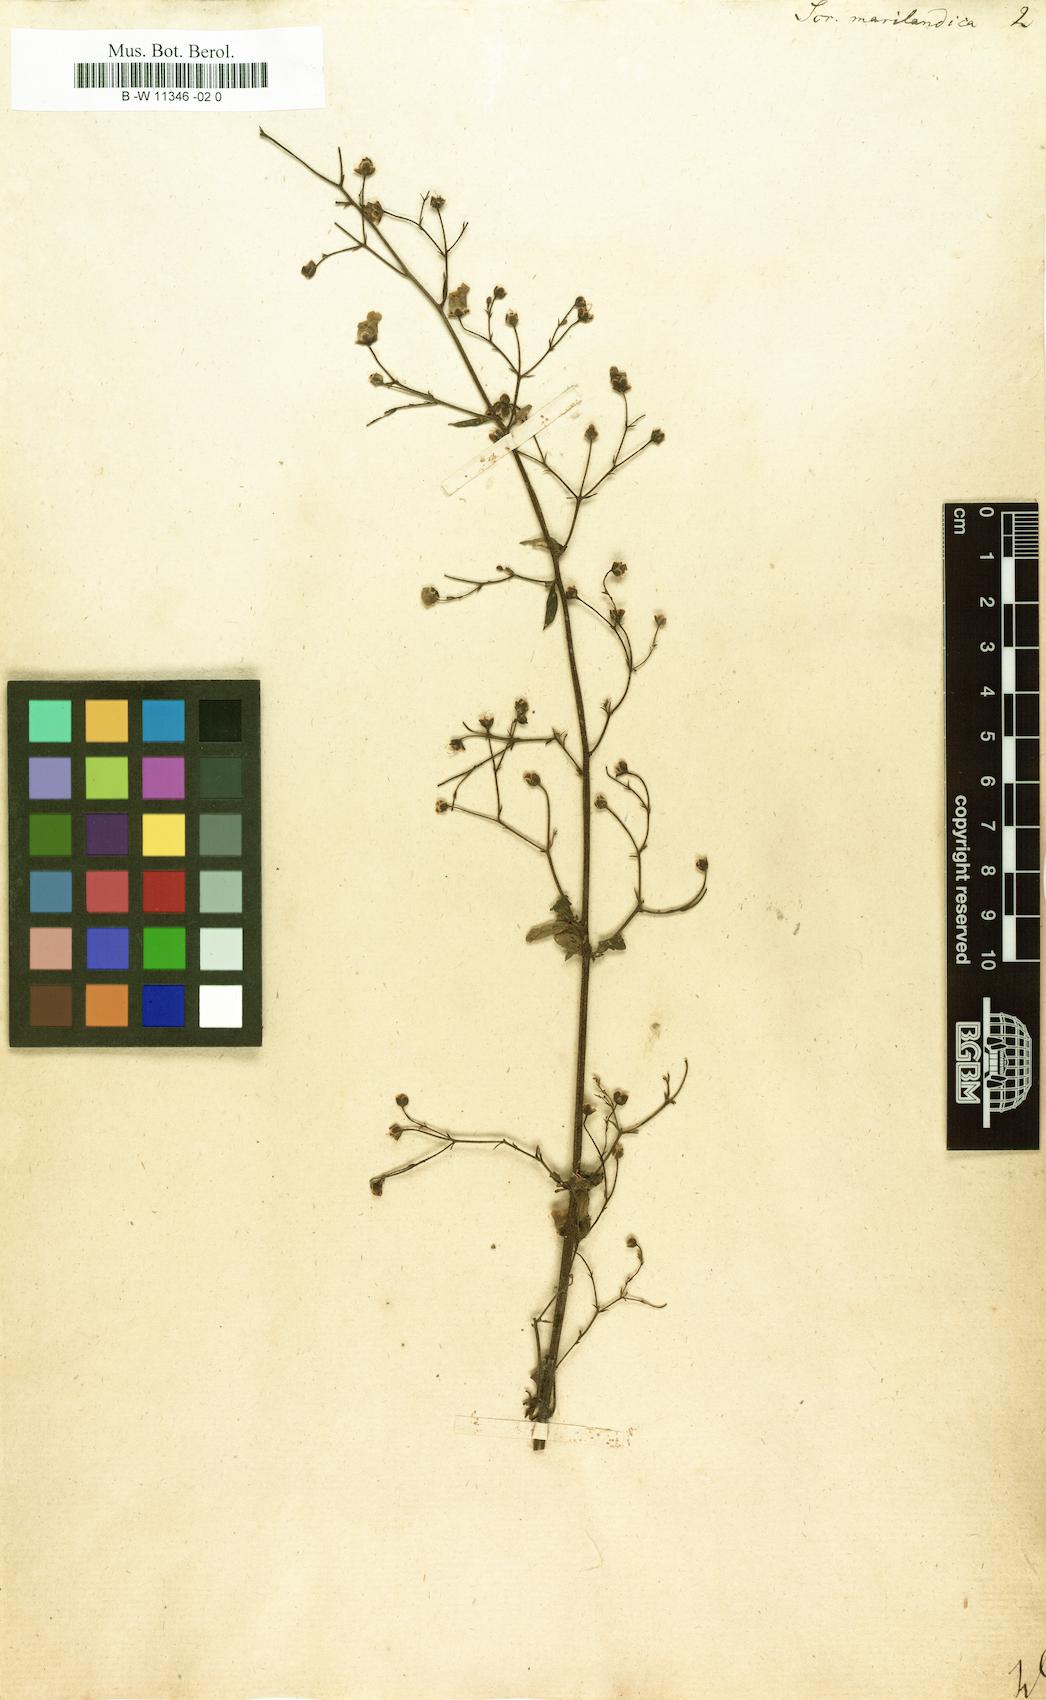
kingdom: Plantae
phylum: Tracheophyta
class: Magnoliopsida
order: Lamiales
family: Scrophulariaceae
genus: Scrophularia
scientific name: Scrophularia marilandica
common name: Eastern figwort
